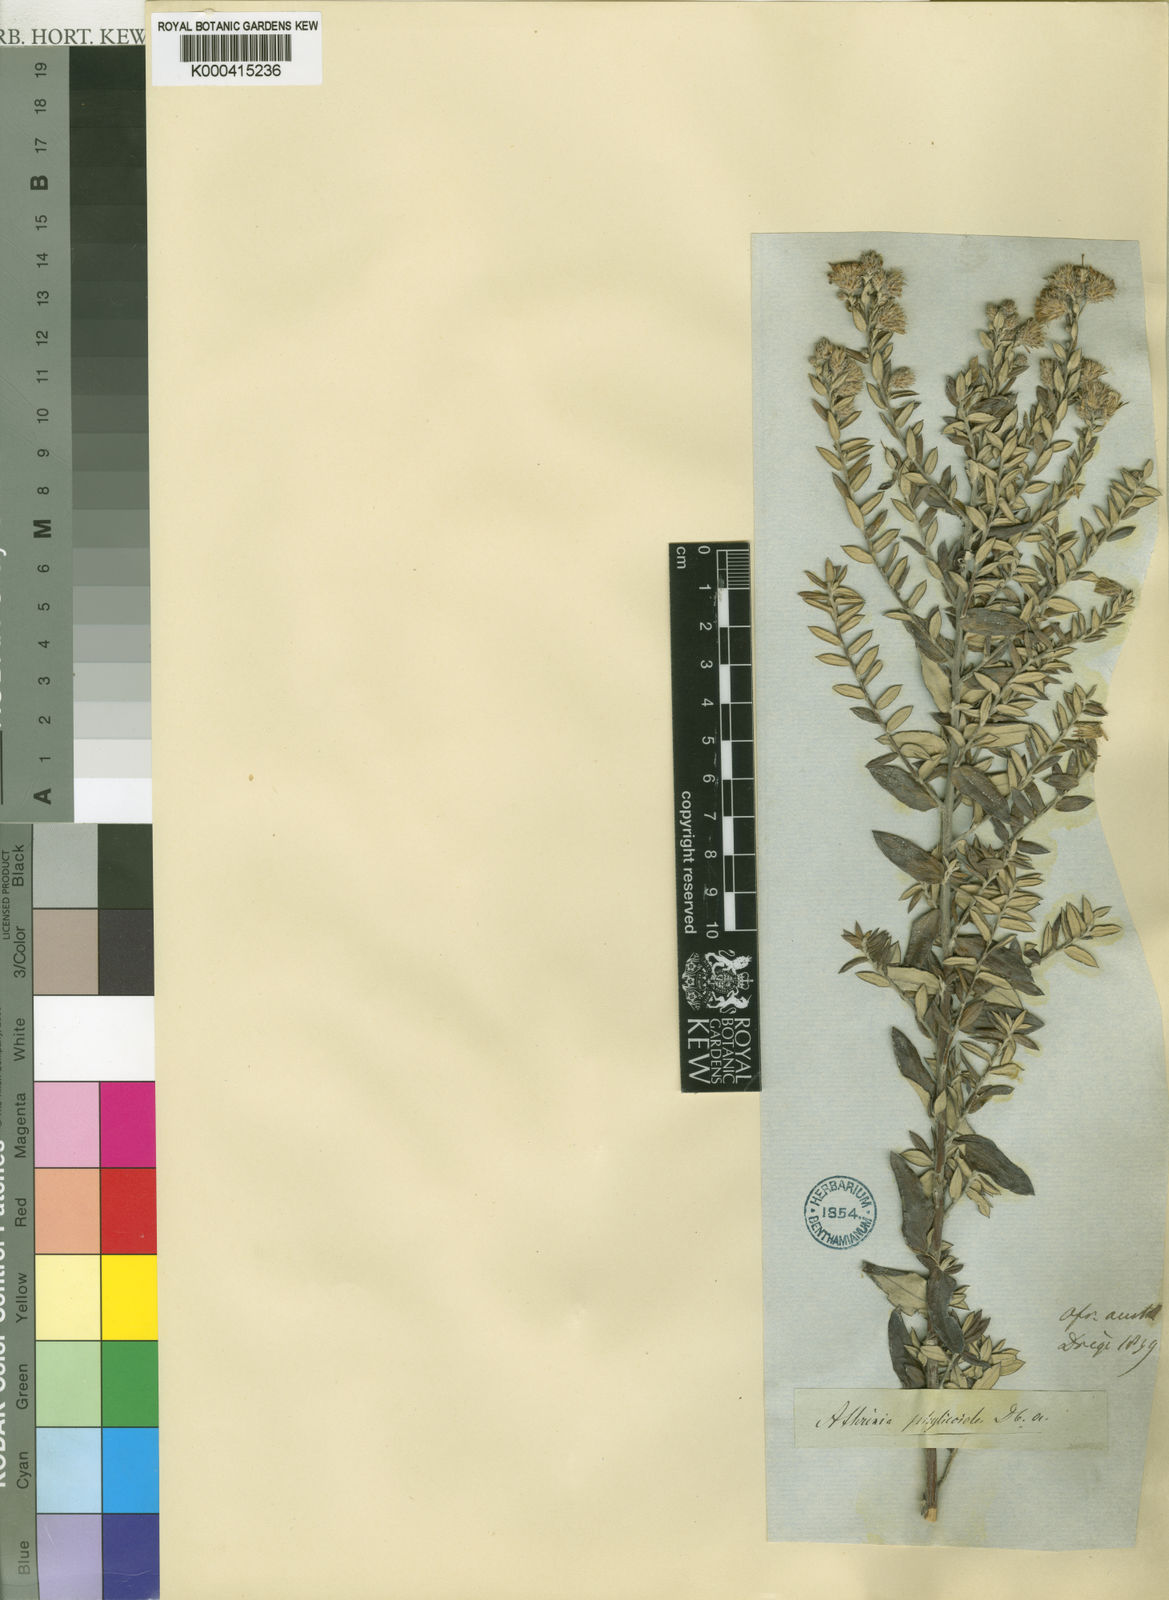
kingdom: Plantae
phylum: Tracheophyta
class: Magnoliopsida
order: Asterales
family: Asteraceae
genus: Athrixia
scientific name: Athrixia phylicoides
